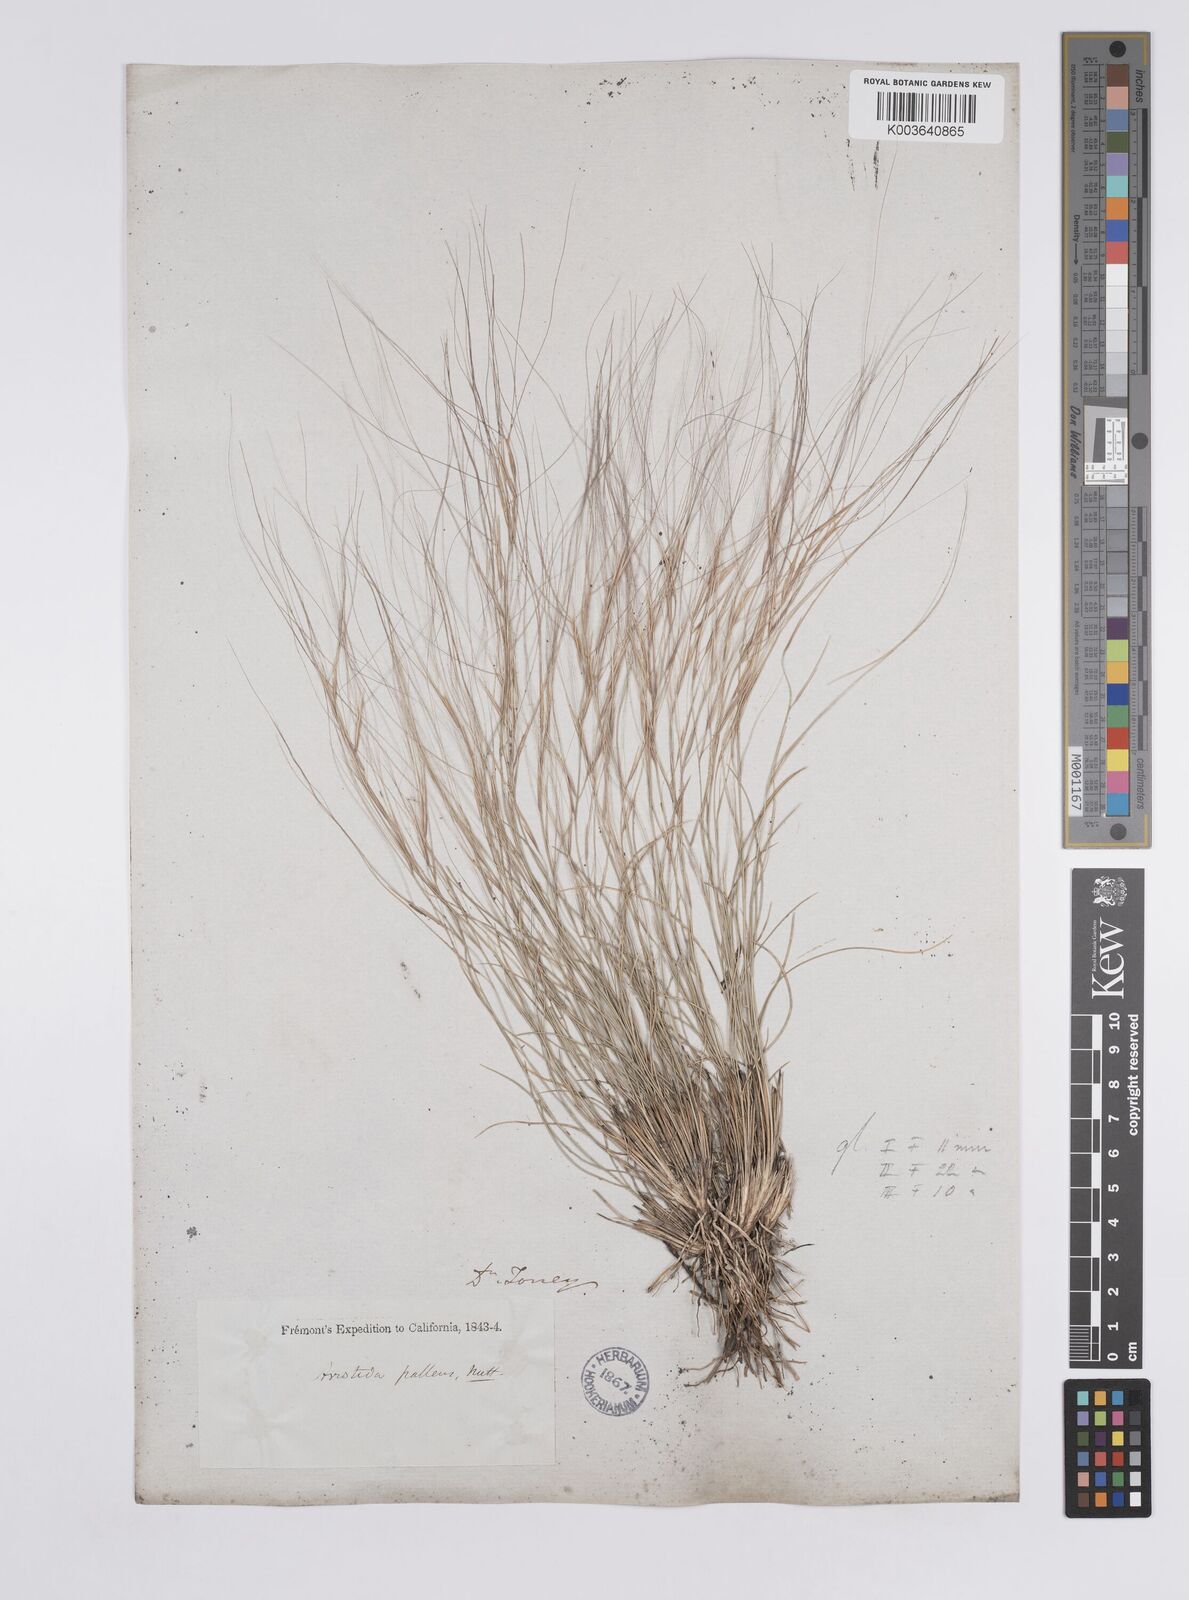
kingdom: Plantae
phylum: Tracheophyta
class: Liliopsida
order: Poales
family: Poaceae
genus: Aristida
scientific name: Aristida purpurea
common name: Purple threeawn
